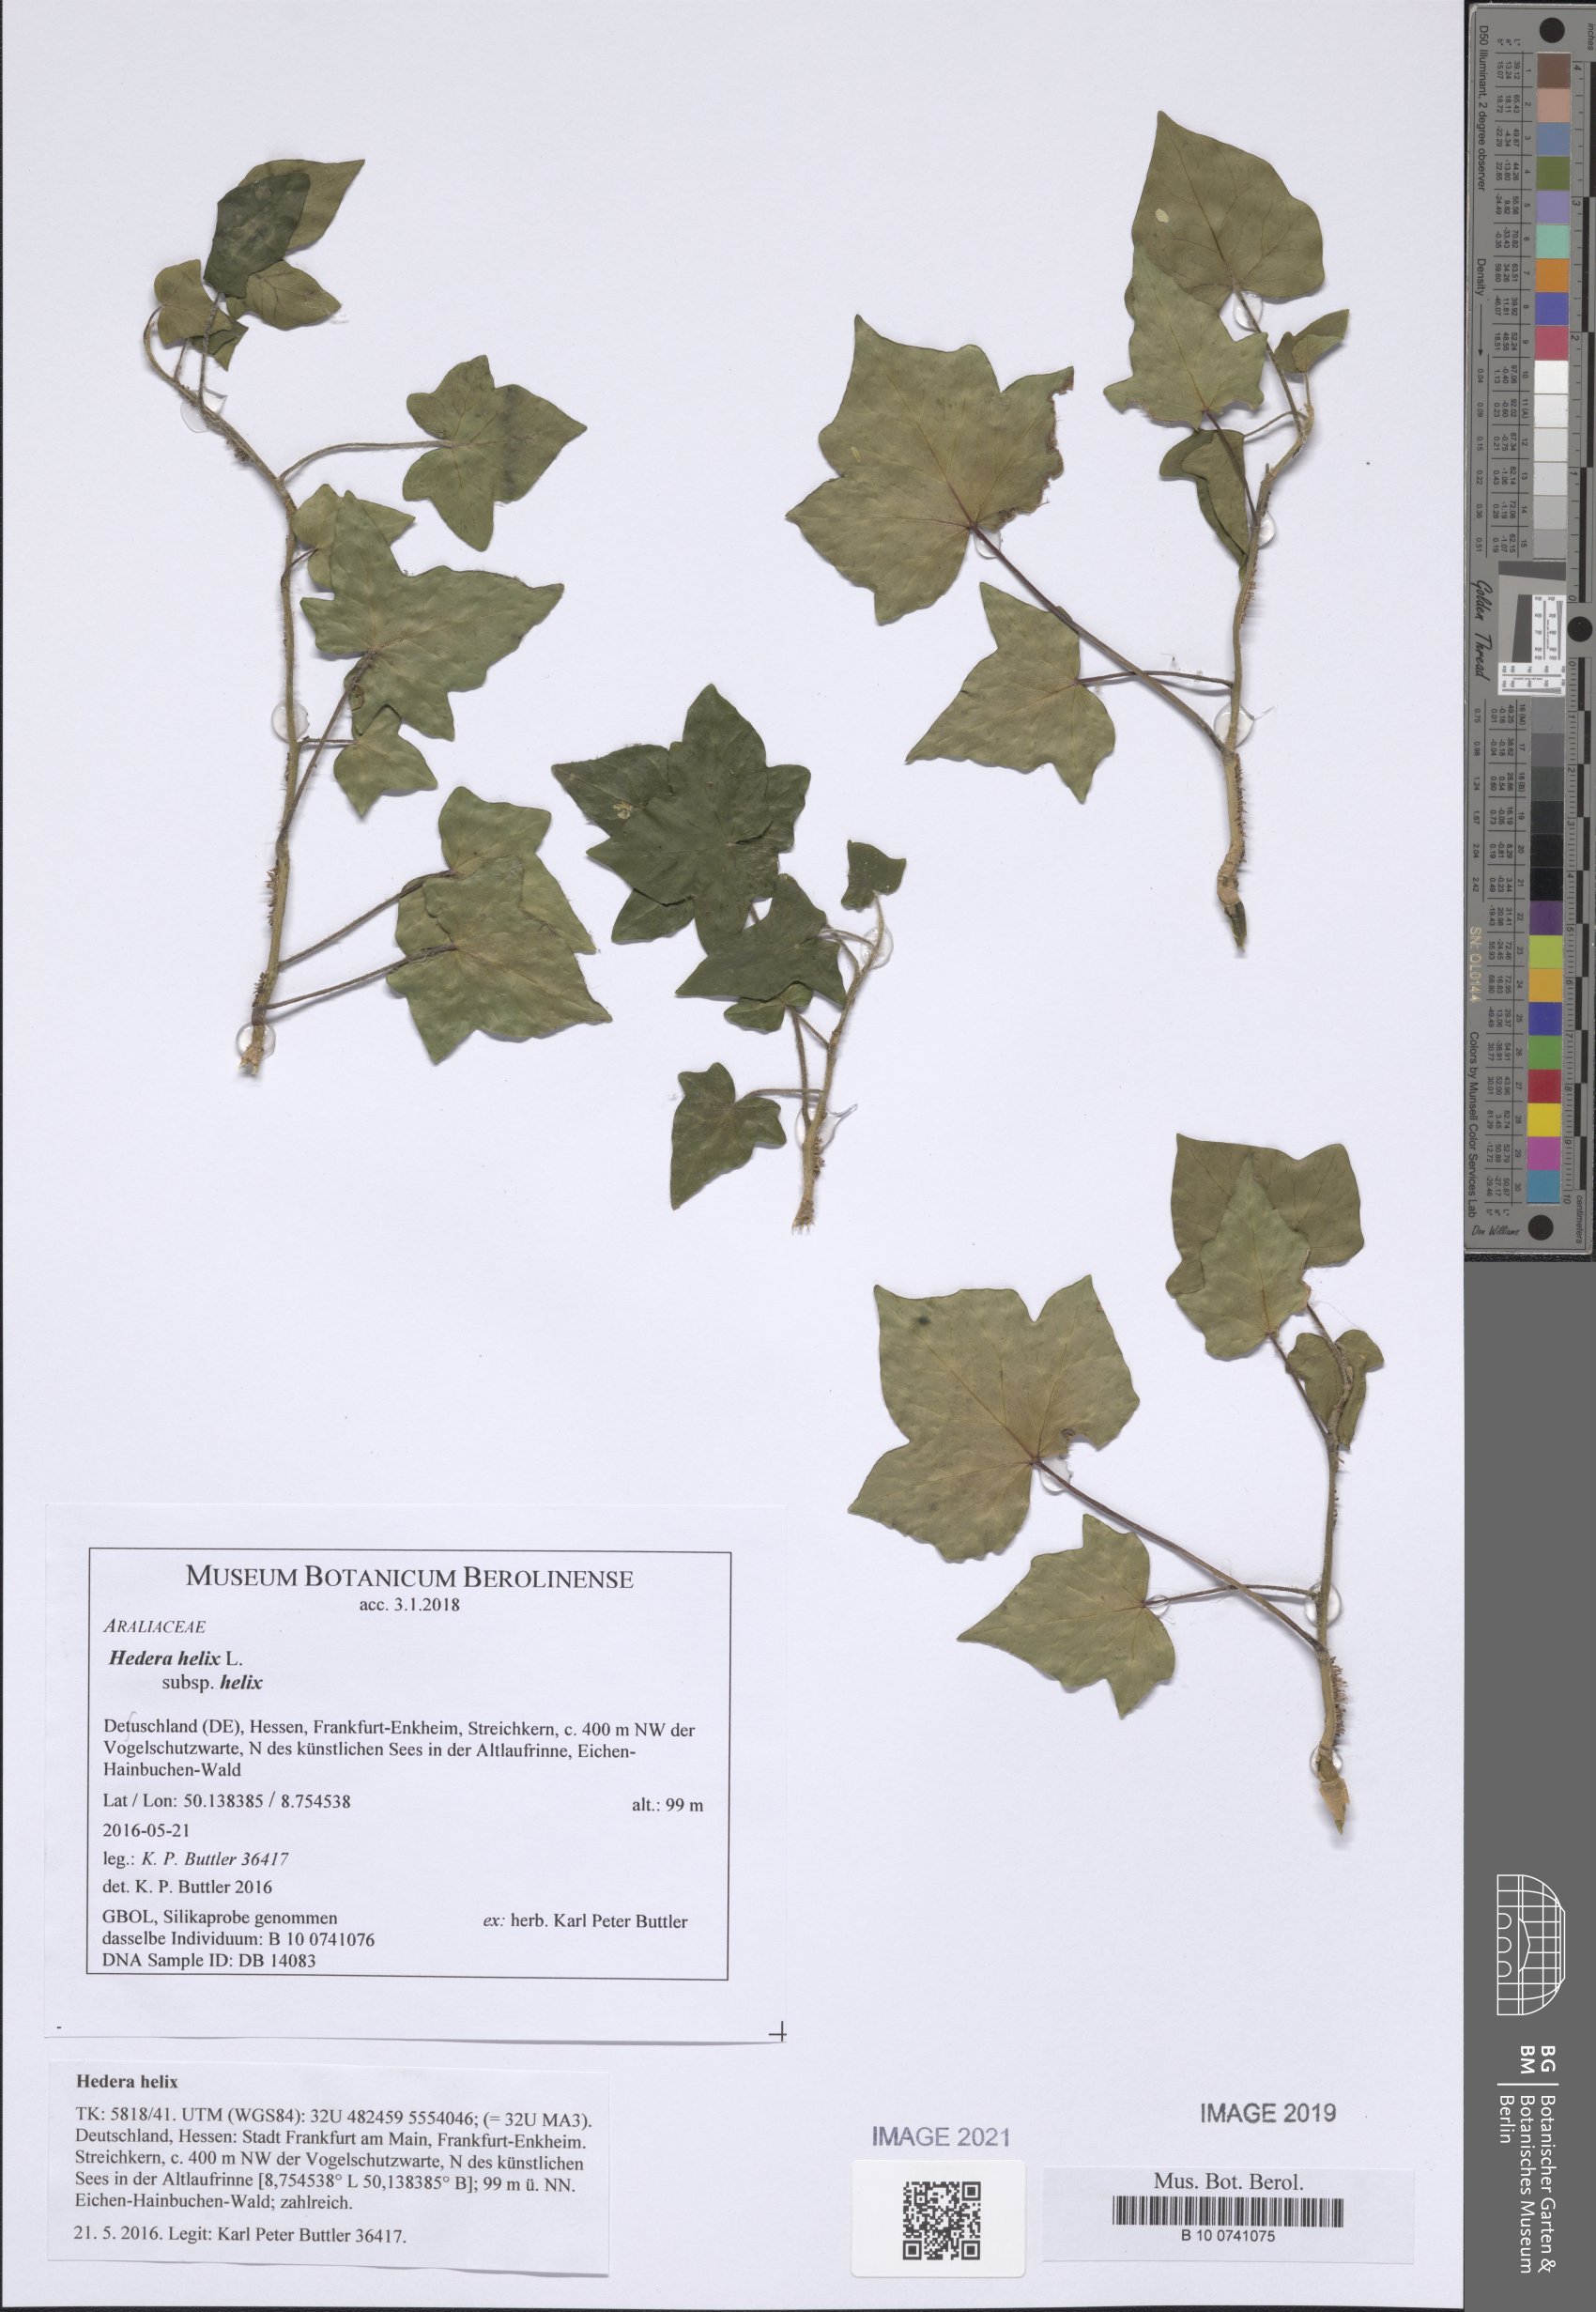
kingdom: Plantae
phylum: Tracheophyta
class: Magnoliopsida
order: Apiales
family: Araliaceae
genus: Hedera
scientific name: Hedera helix
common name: Ivy
